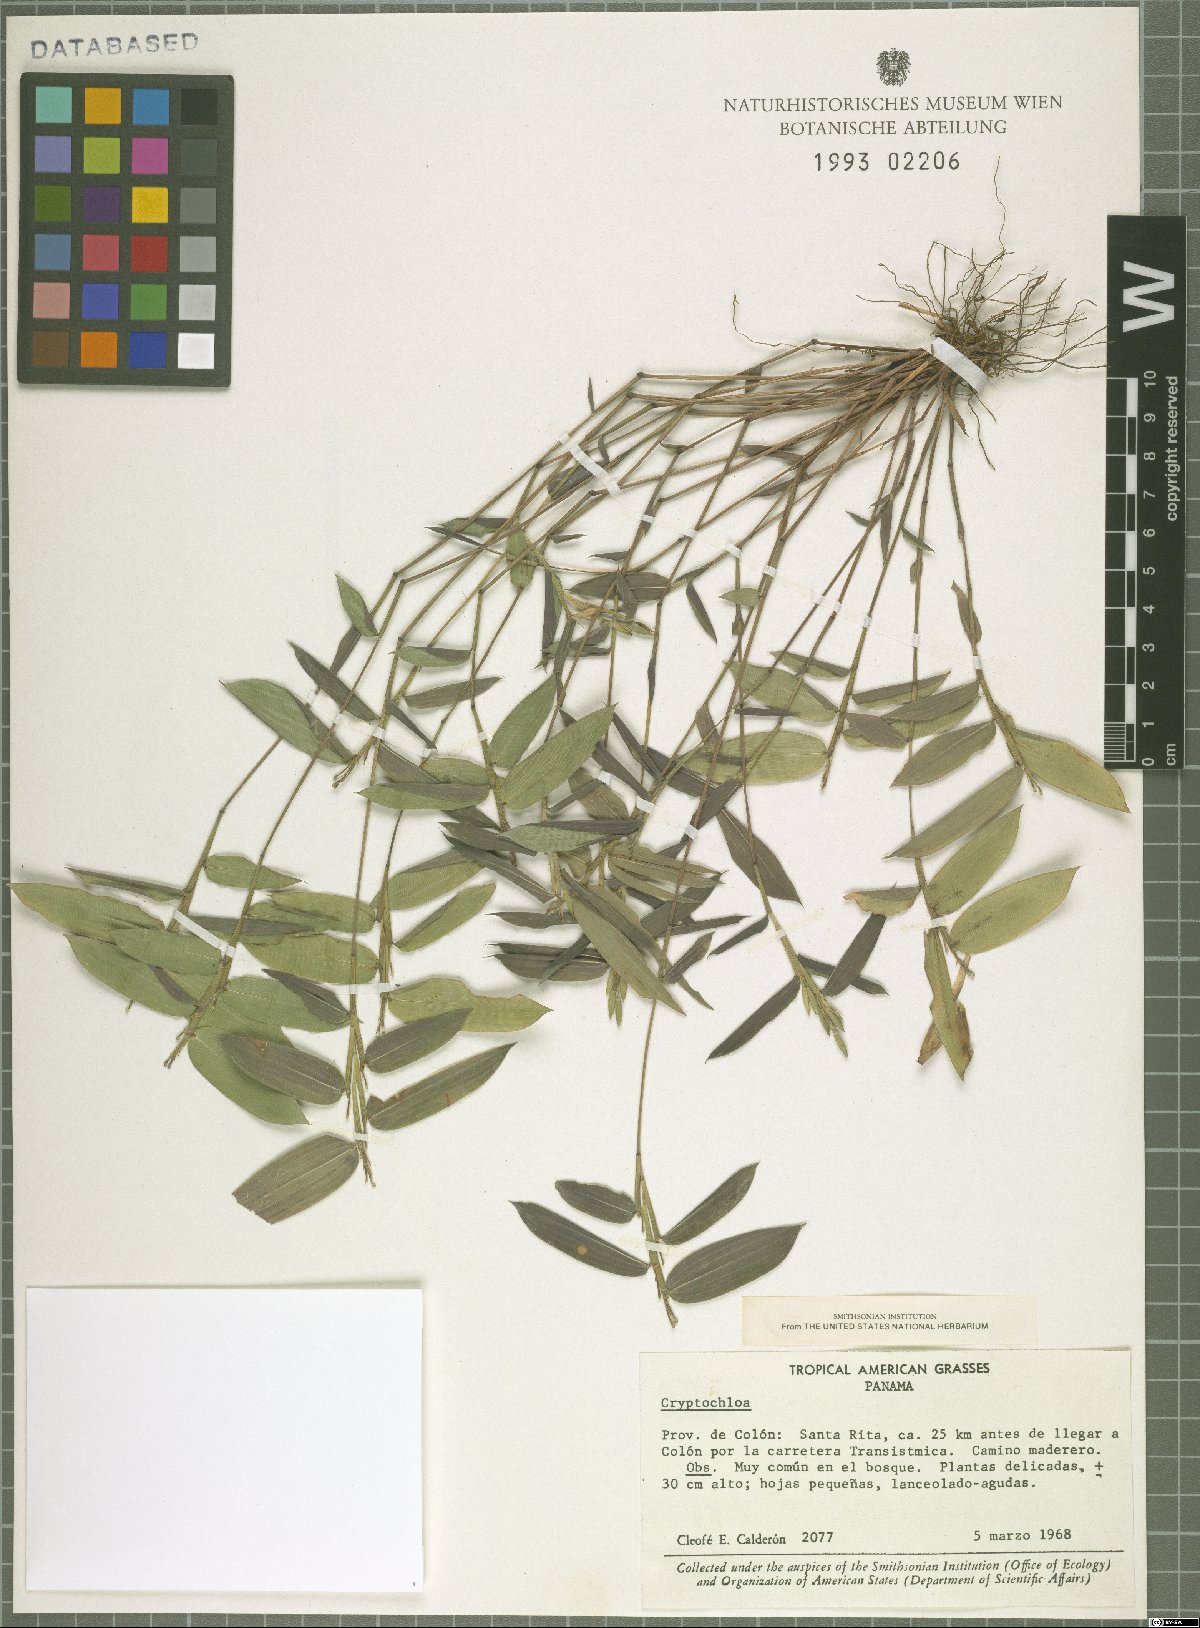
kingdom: Plantae
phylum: Tracheophyta
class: Liliopsida
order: Poales
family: Poaceae
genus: Cryptochloa
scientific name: Cryptochloa
